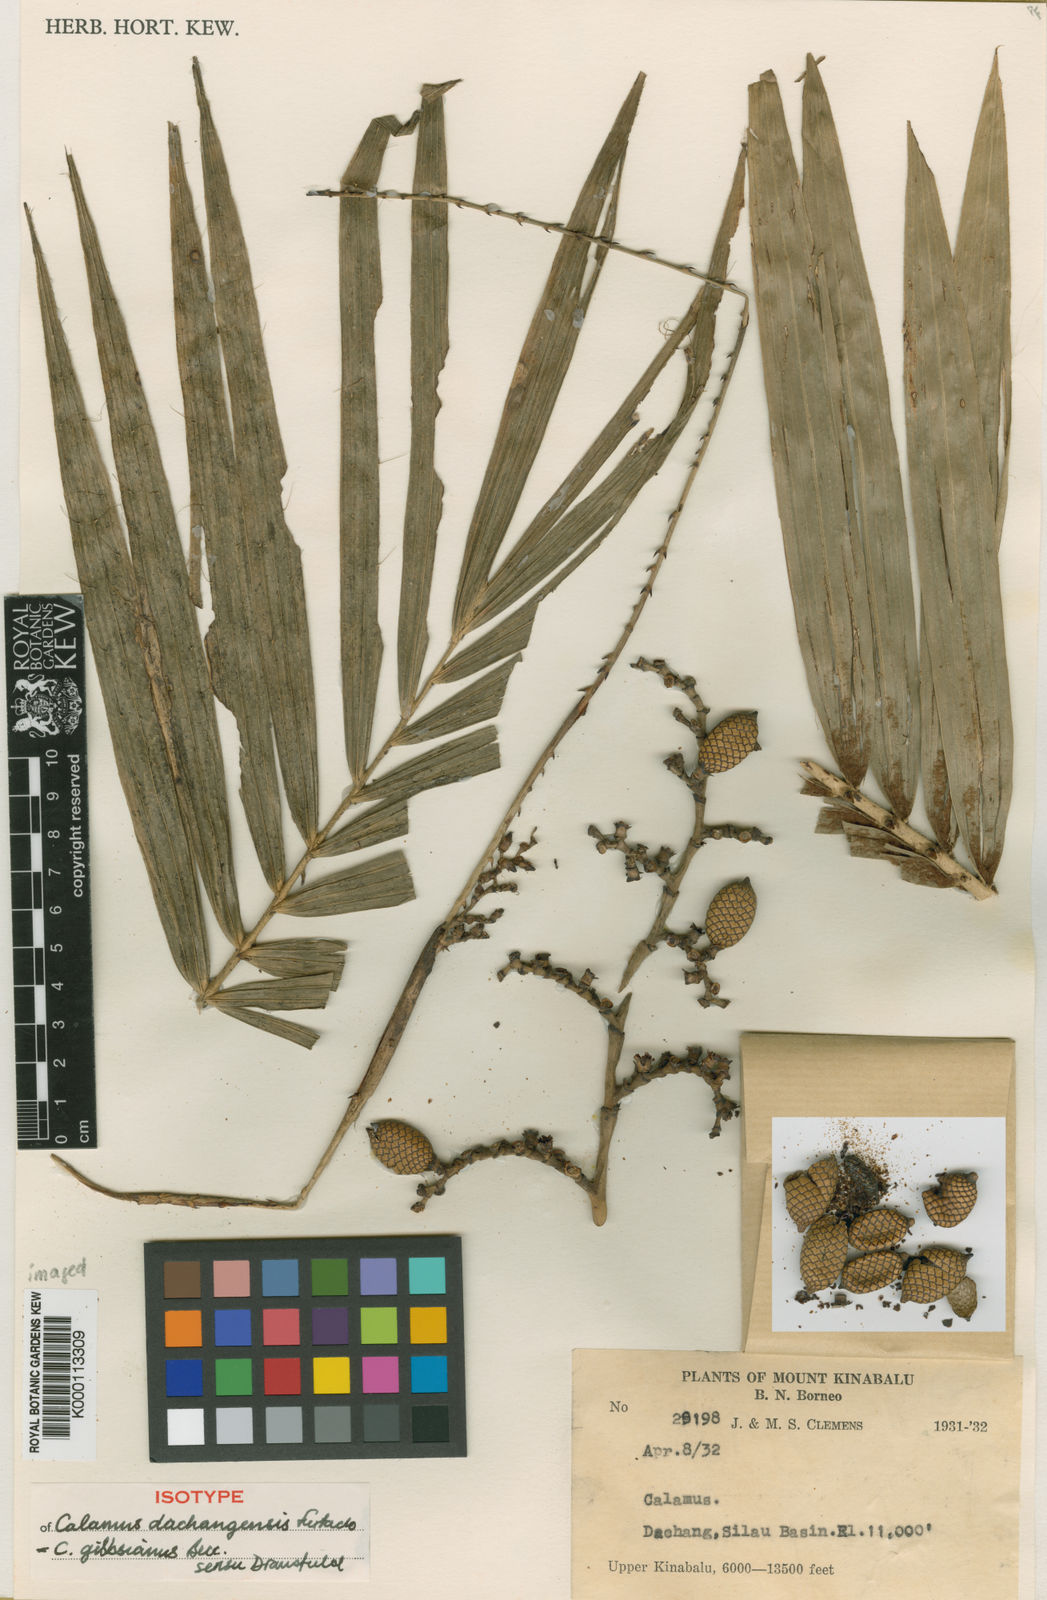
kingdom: Plantae
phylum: Tracheophyta
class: Liliopsida
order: Arecales
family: Arecaceae
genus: Calamus
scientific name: Calamus gibbsianus
